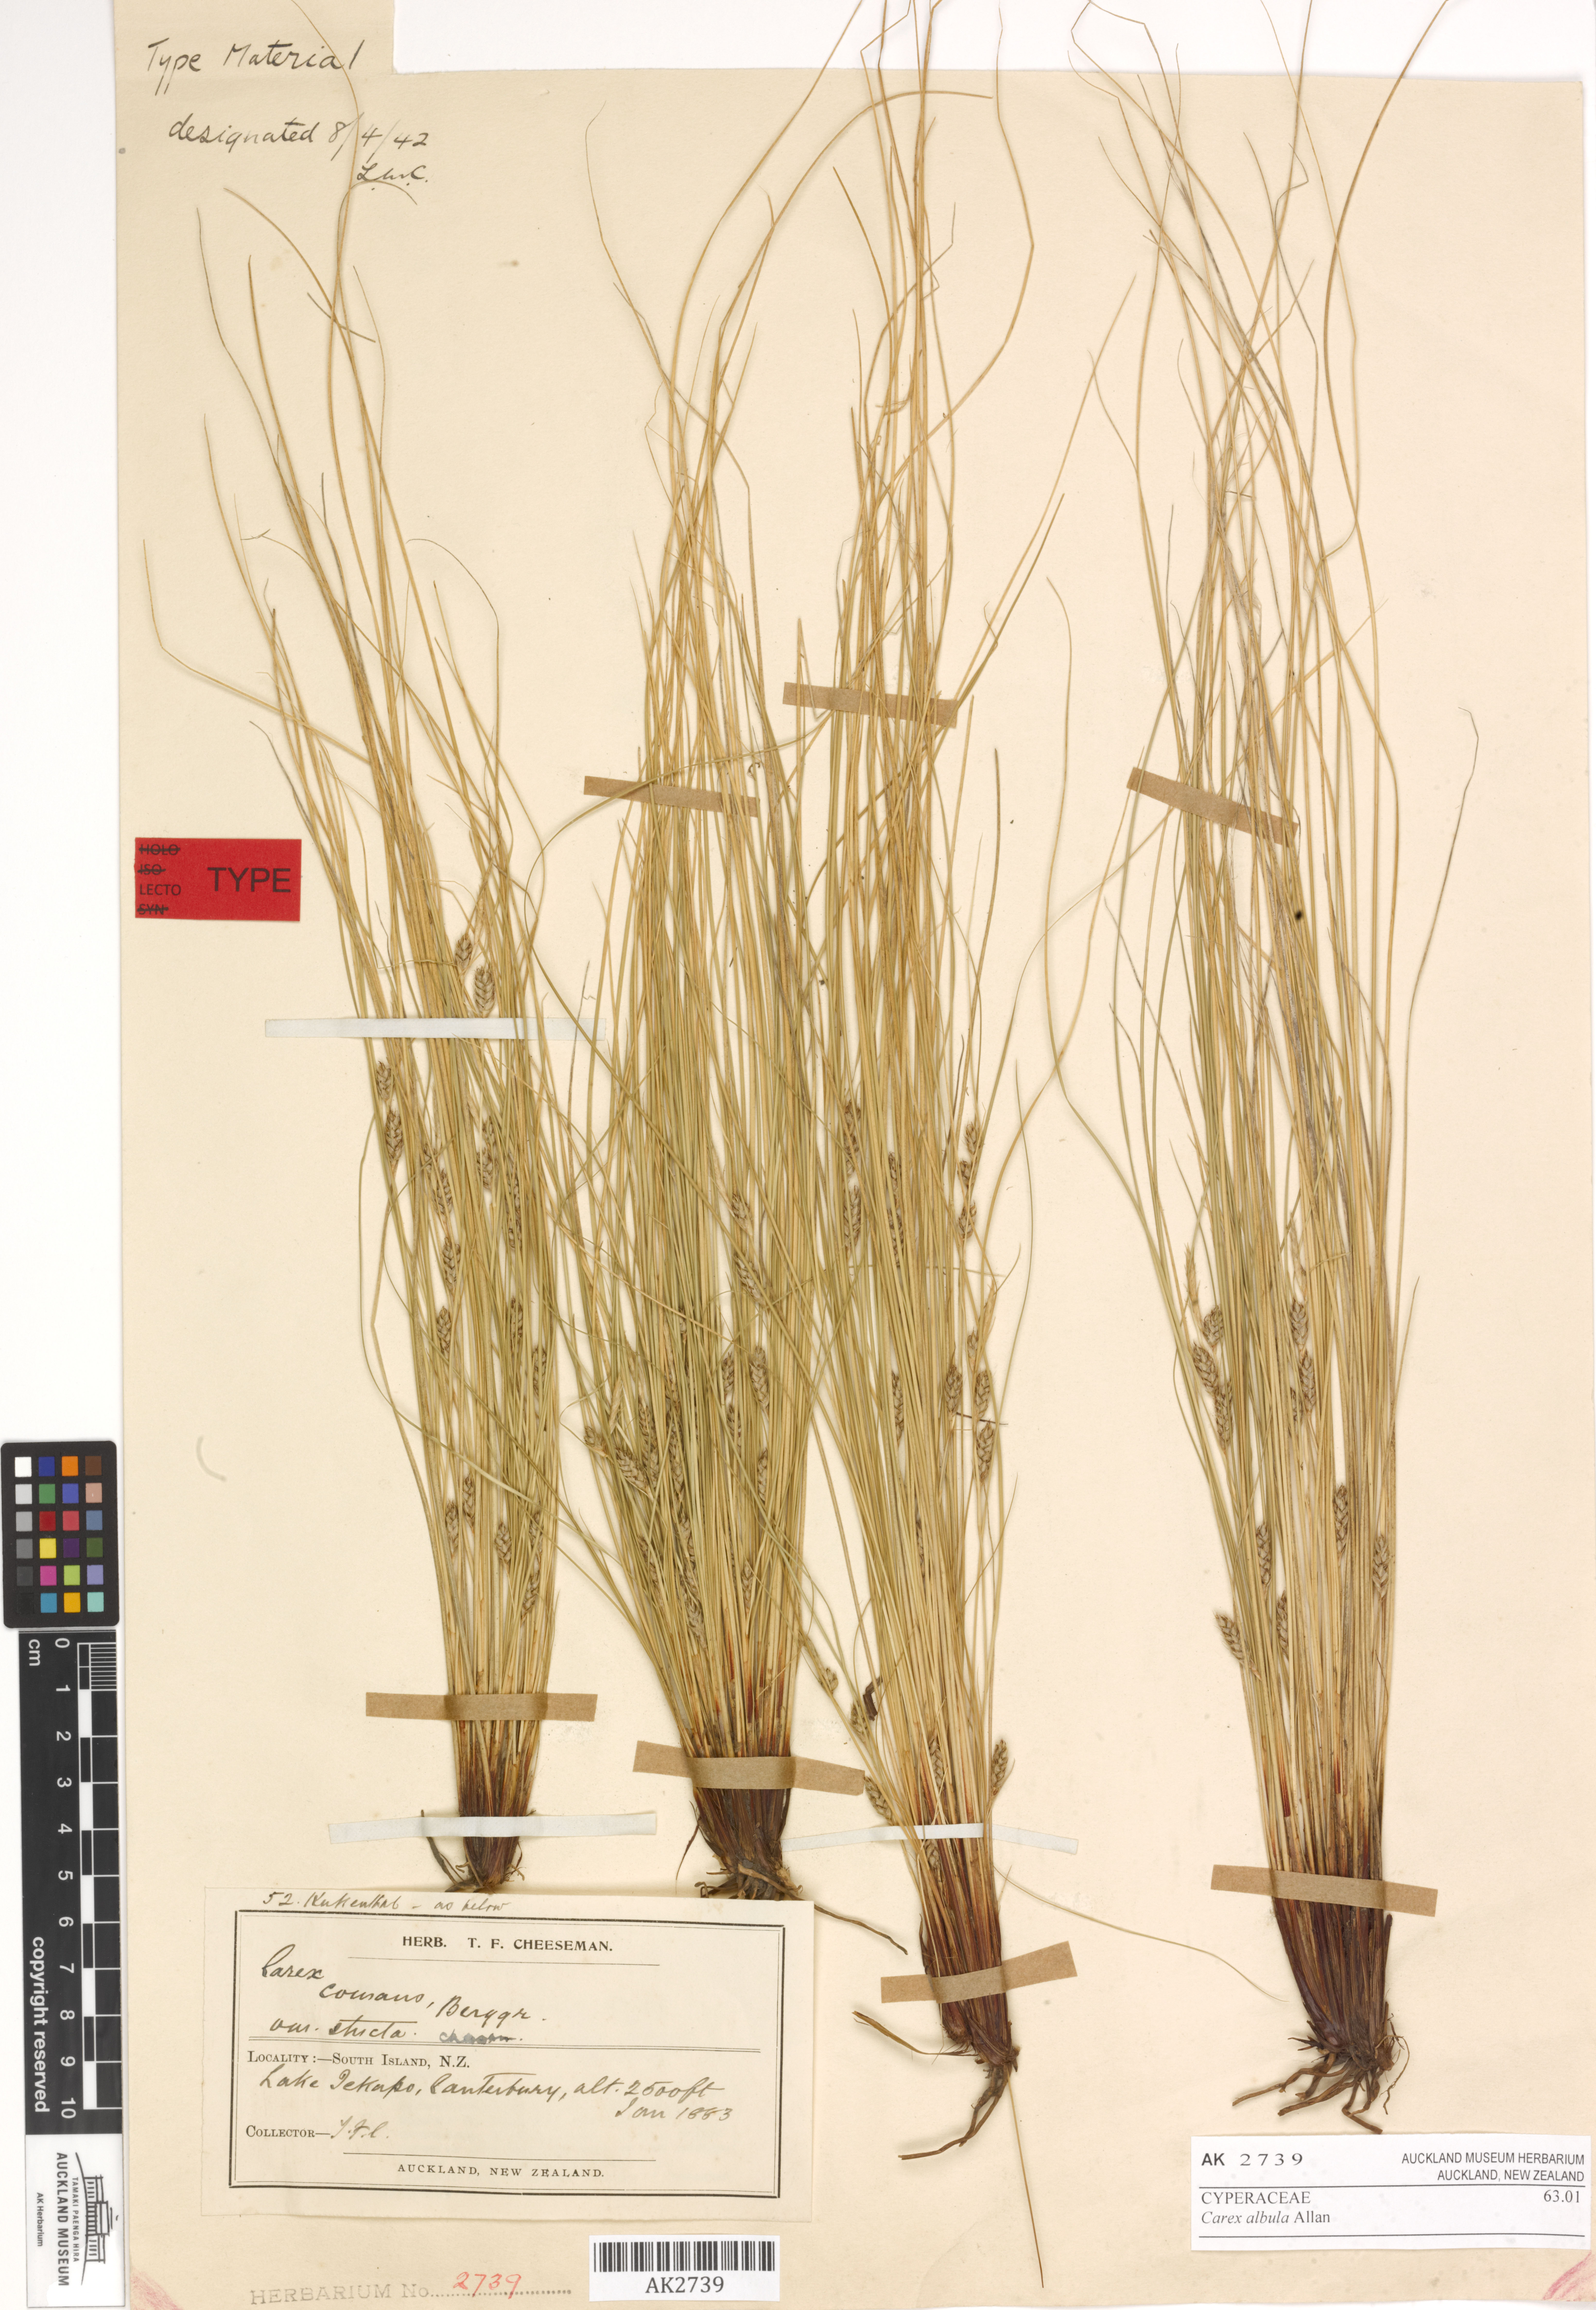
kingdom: Plantae
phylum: Tracheophyta
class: Liliopsida
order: Poales
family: Cyperaceae
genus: Carex
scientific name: Carex albula
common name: Blonde sedge
